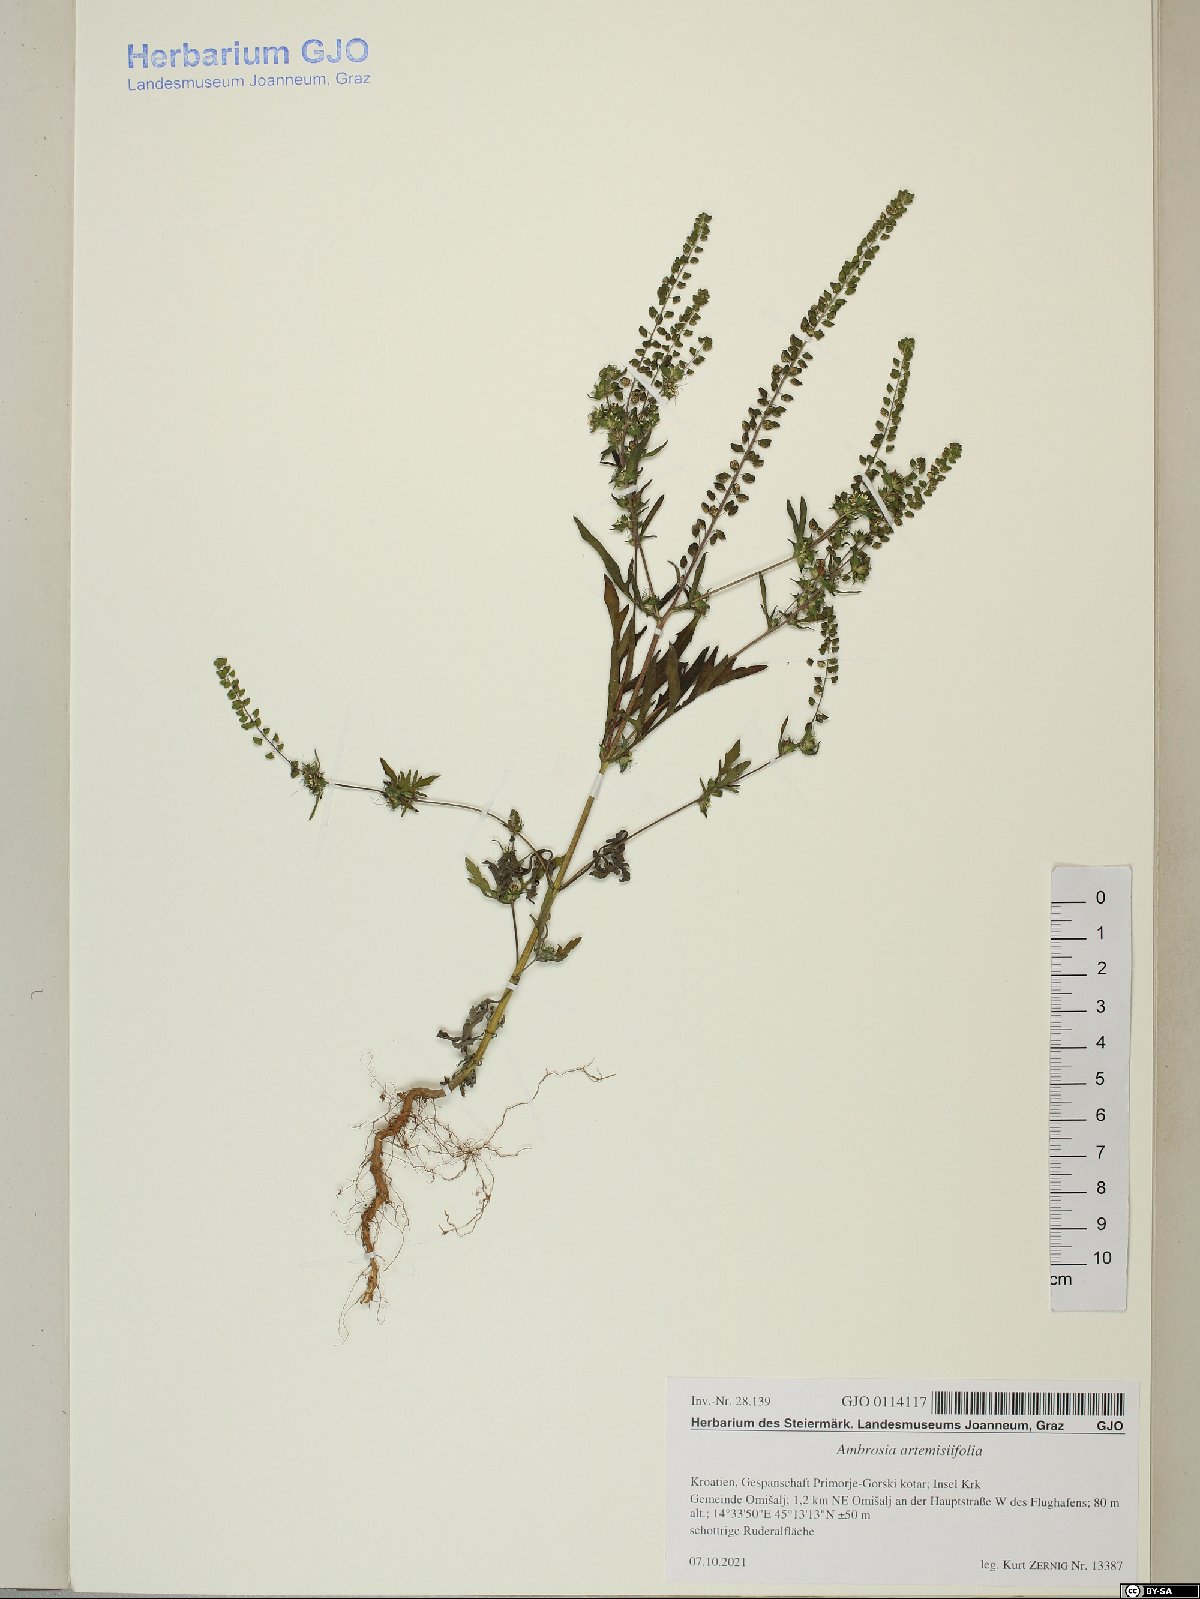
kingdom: Plantae
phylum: Tracheophyta
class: Magnoliopsida
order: Asterales
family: Asteraceae
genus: Ambrosia
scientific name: Ambrosia artemisiifolia
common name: Annual ragweed
